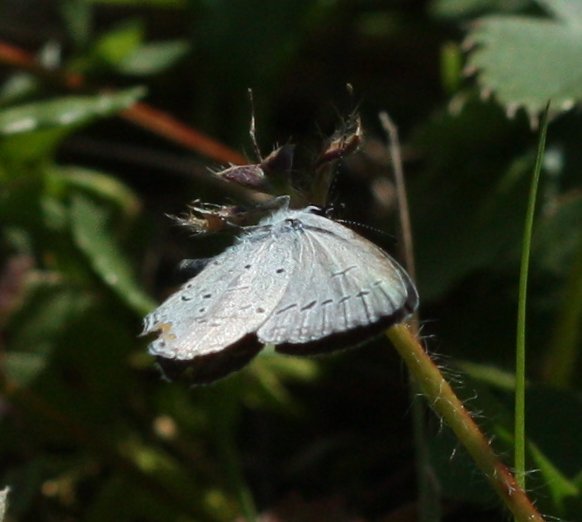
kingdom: Animalia
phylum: Arthropoda
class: Insecta
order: Lepidoptera
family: Lycaenidae
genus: Elkalyce
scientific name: Elkalyce comyntas
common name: Eastern Tailed-Blue
